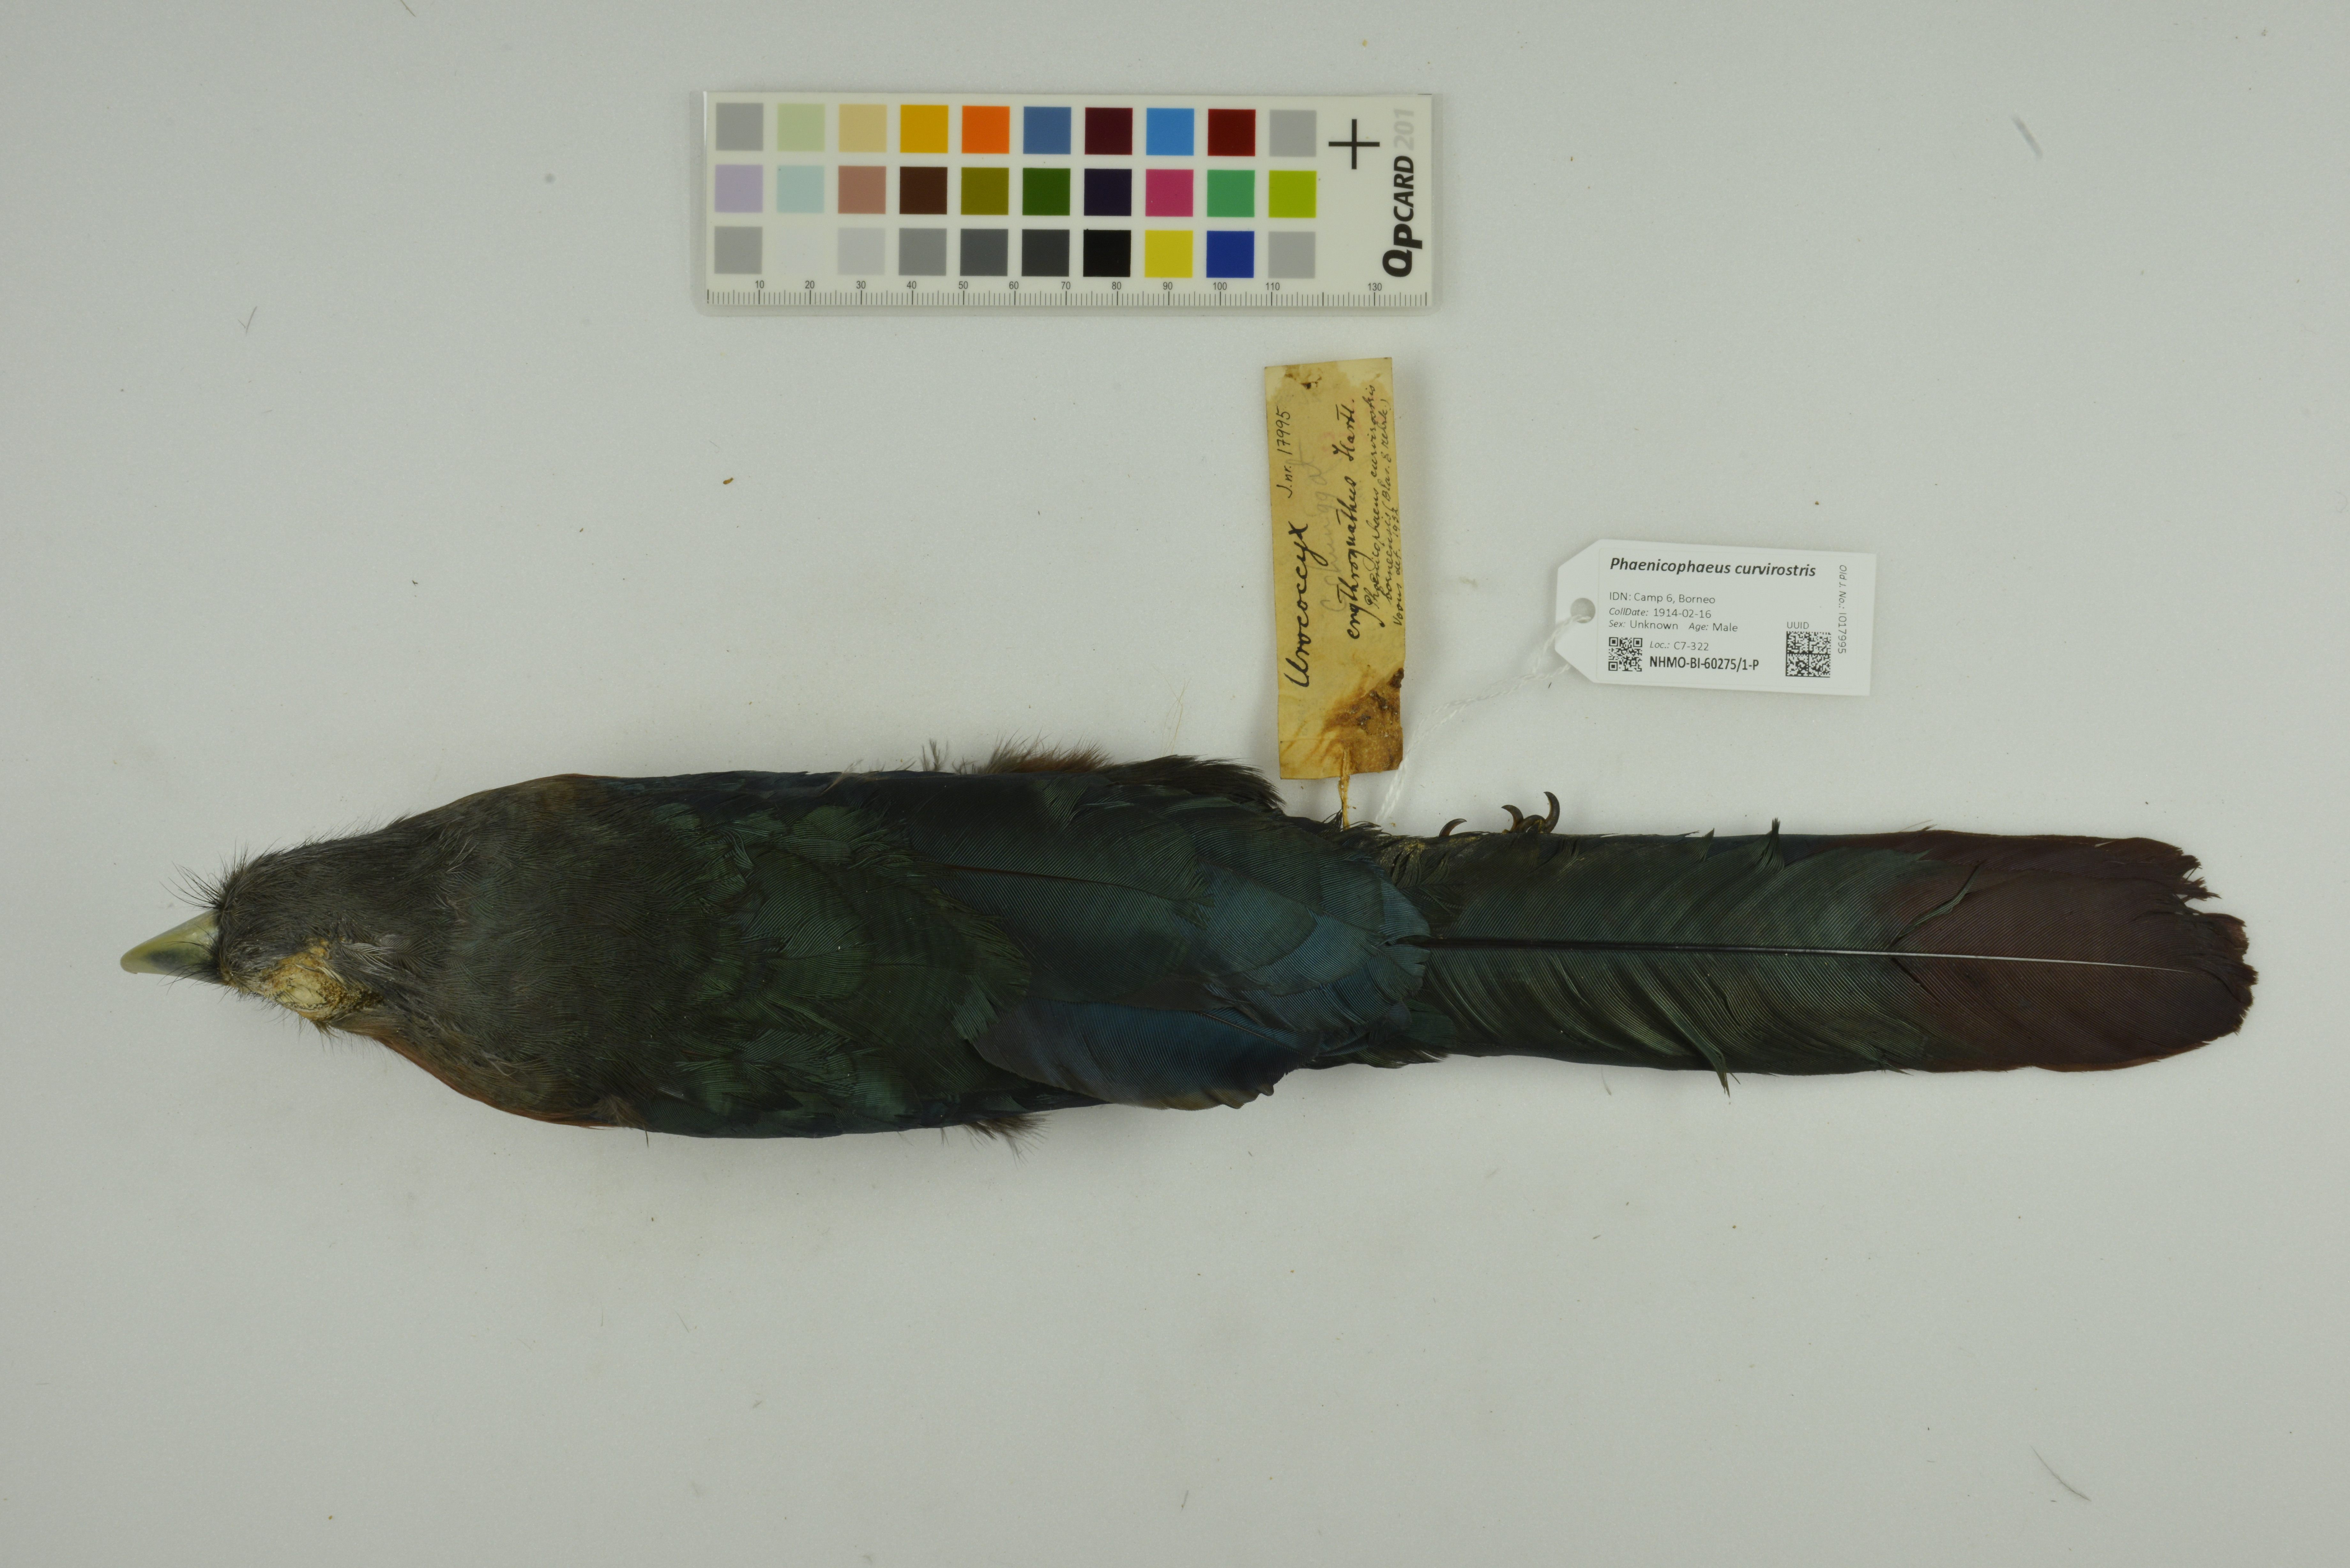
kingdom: Animalia
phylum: Chordata
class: Aves
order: Cuculiformes
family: Cuculidae
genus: Zanclostomus
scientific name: Zanclostomus curvirostris
